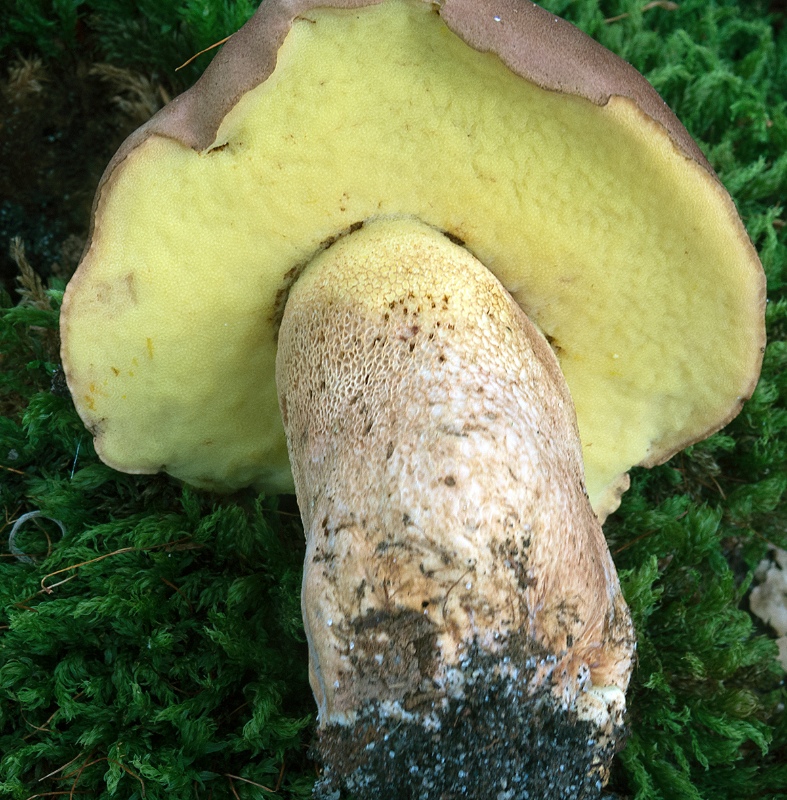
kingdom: Fungi
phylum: Basidiomycota
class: Agaricomycetes
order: Boletales
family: Boletaceae
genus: Butyriboletus
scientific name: Butyriboletus appendiculatus
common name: tenstokket rørhat
